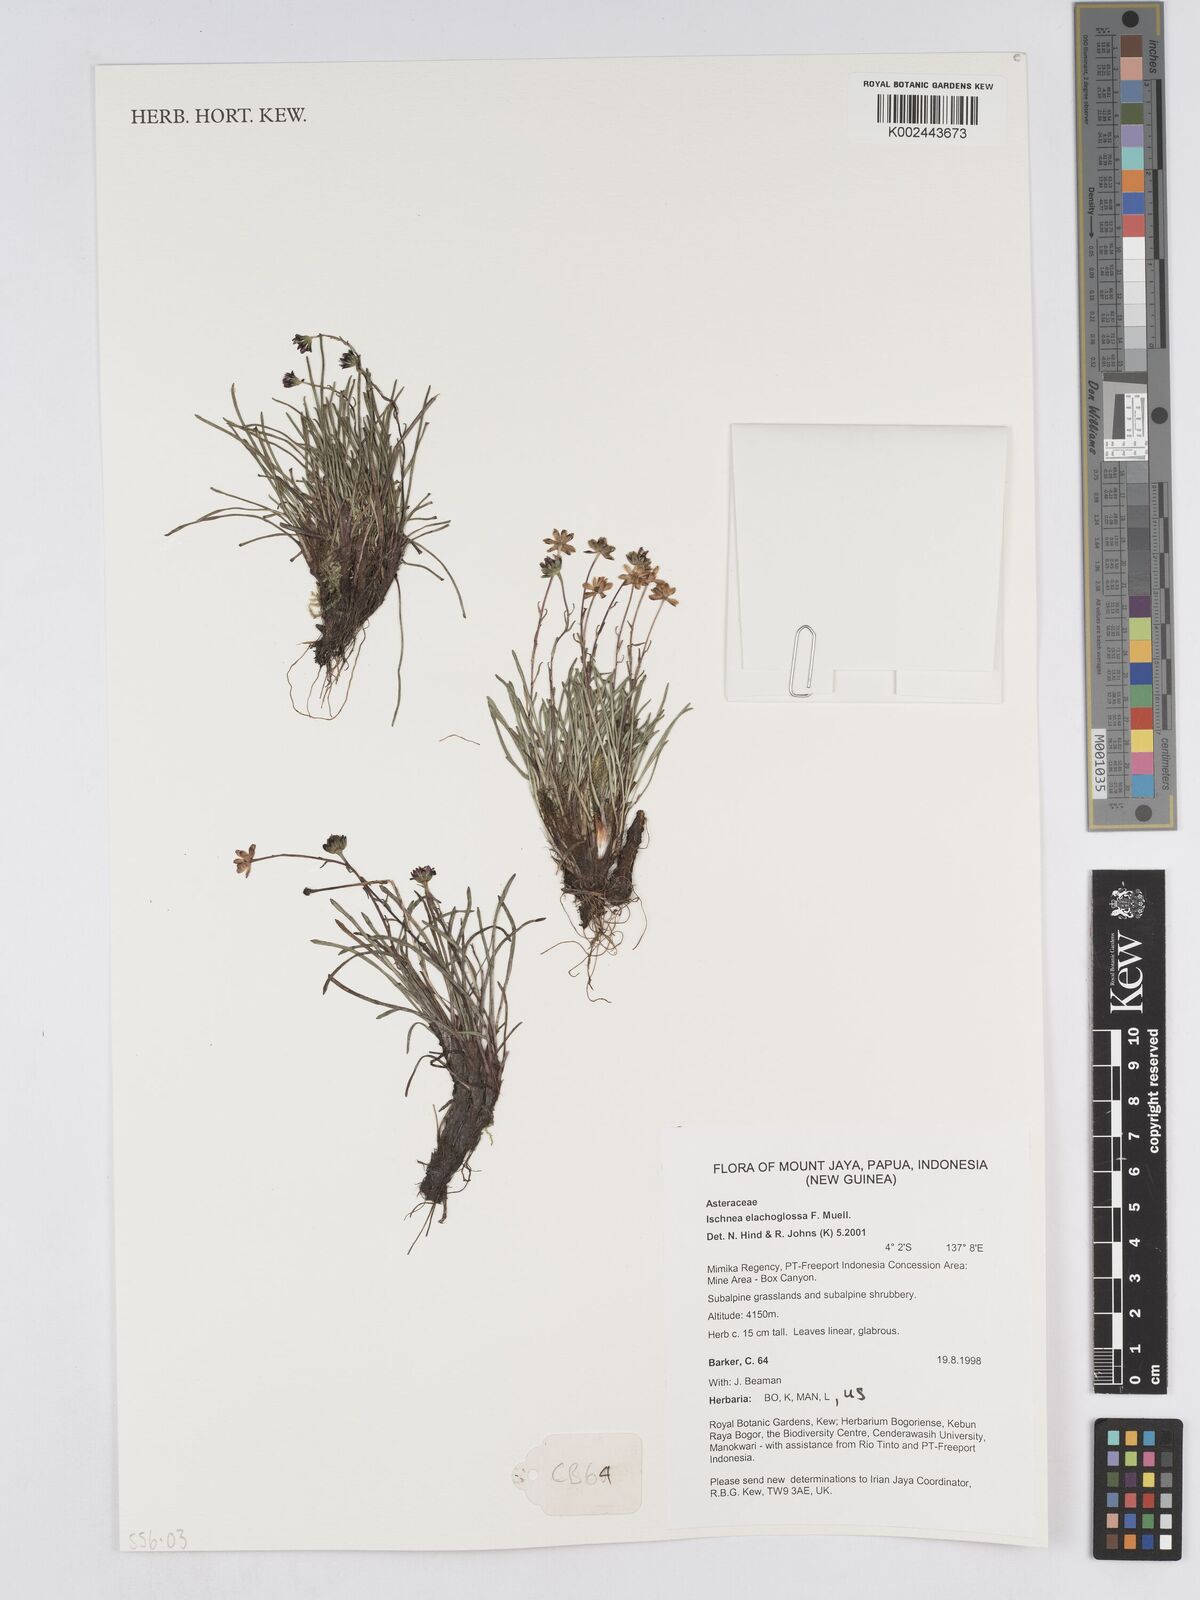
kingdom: Plantae
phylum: Tracheophyta
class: Magnoliopsida
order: Asterales
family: Asteraceae
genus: Ischnea
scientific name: Ischnea elachoglossa
